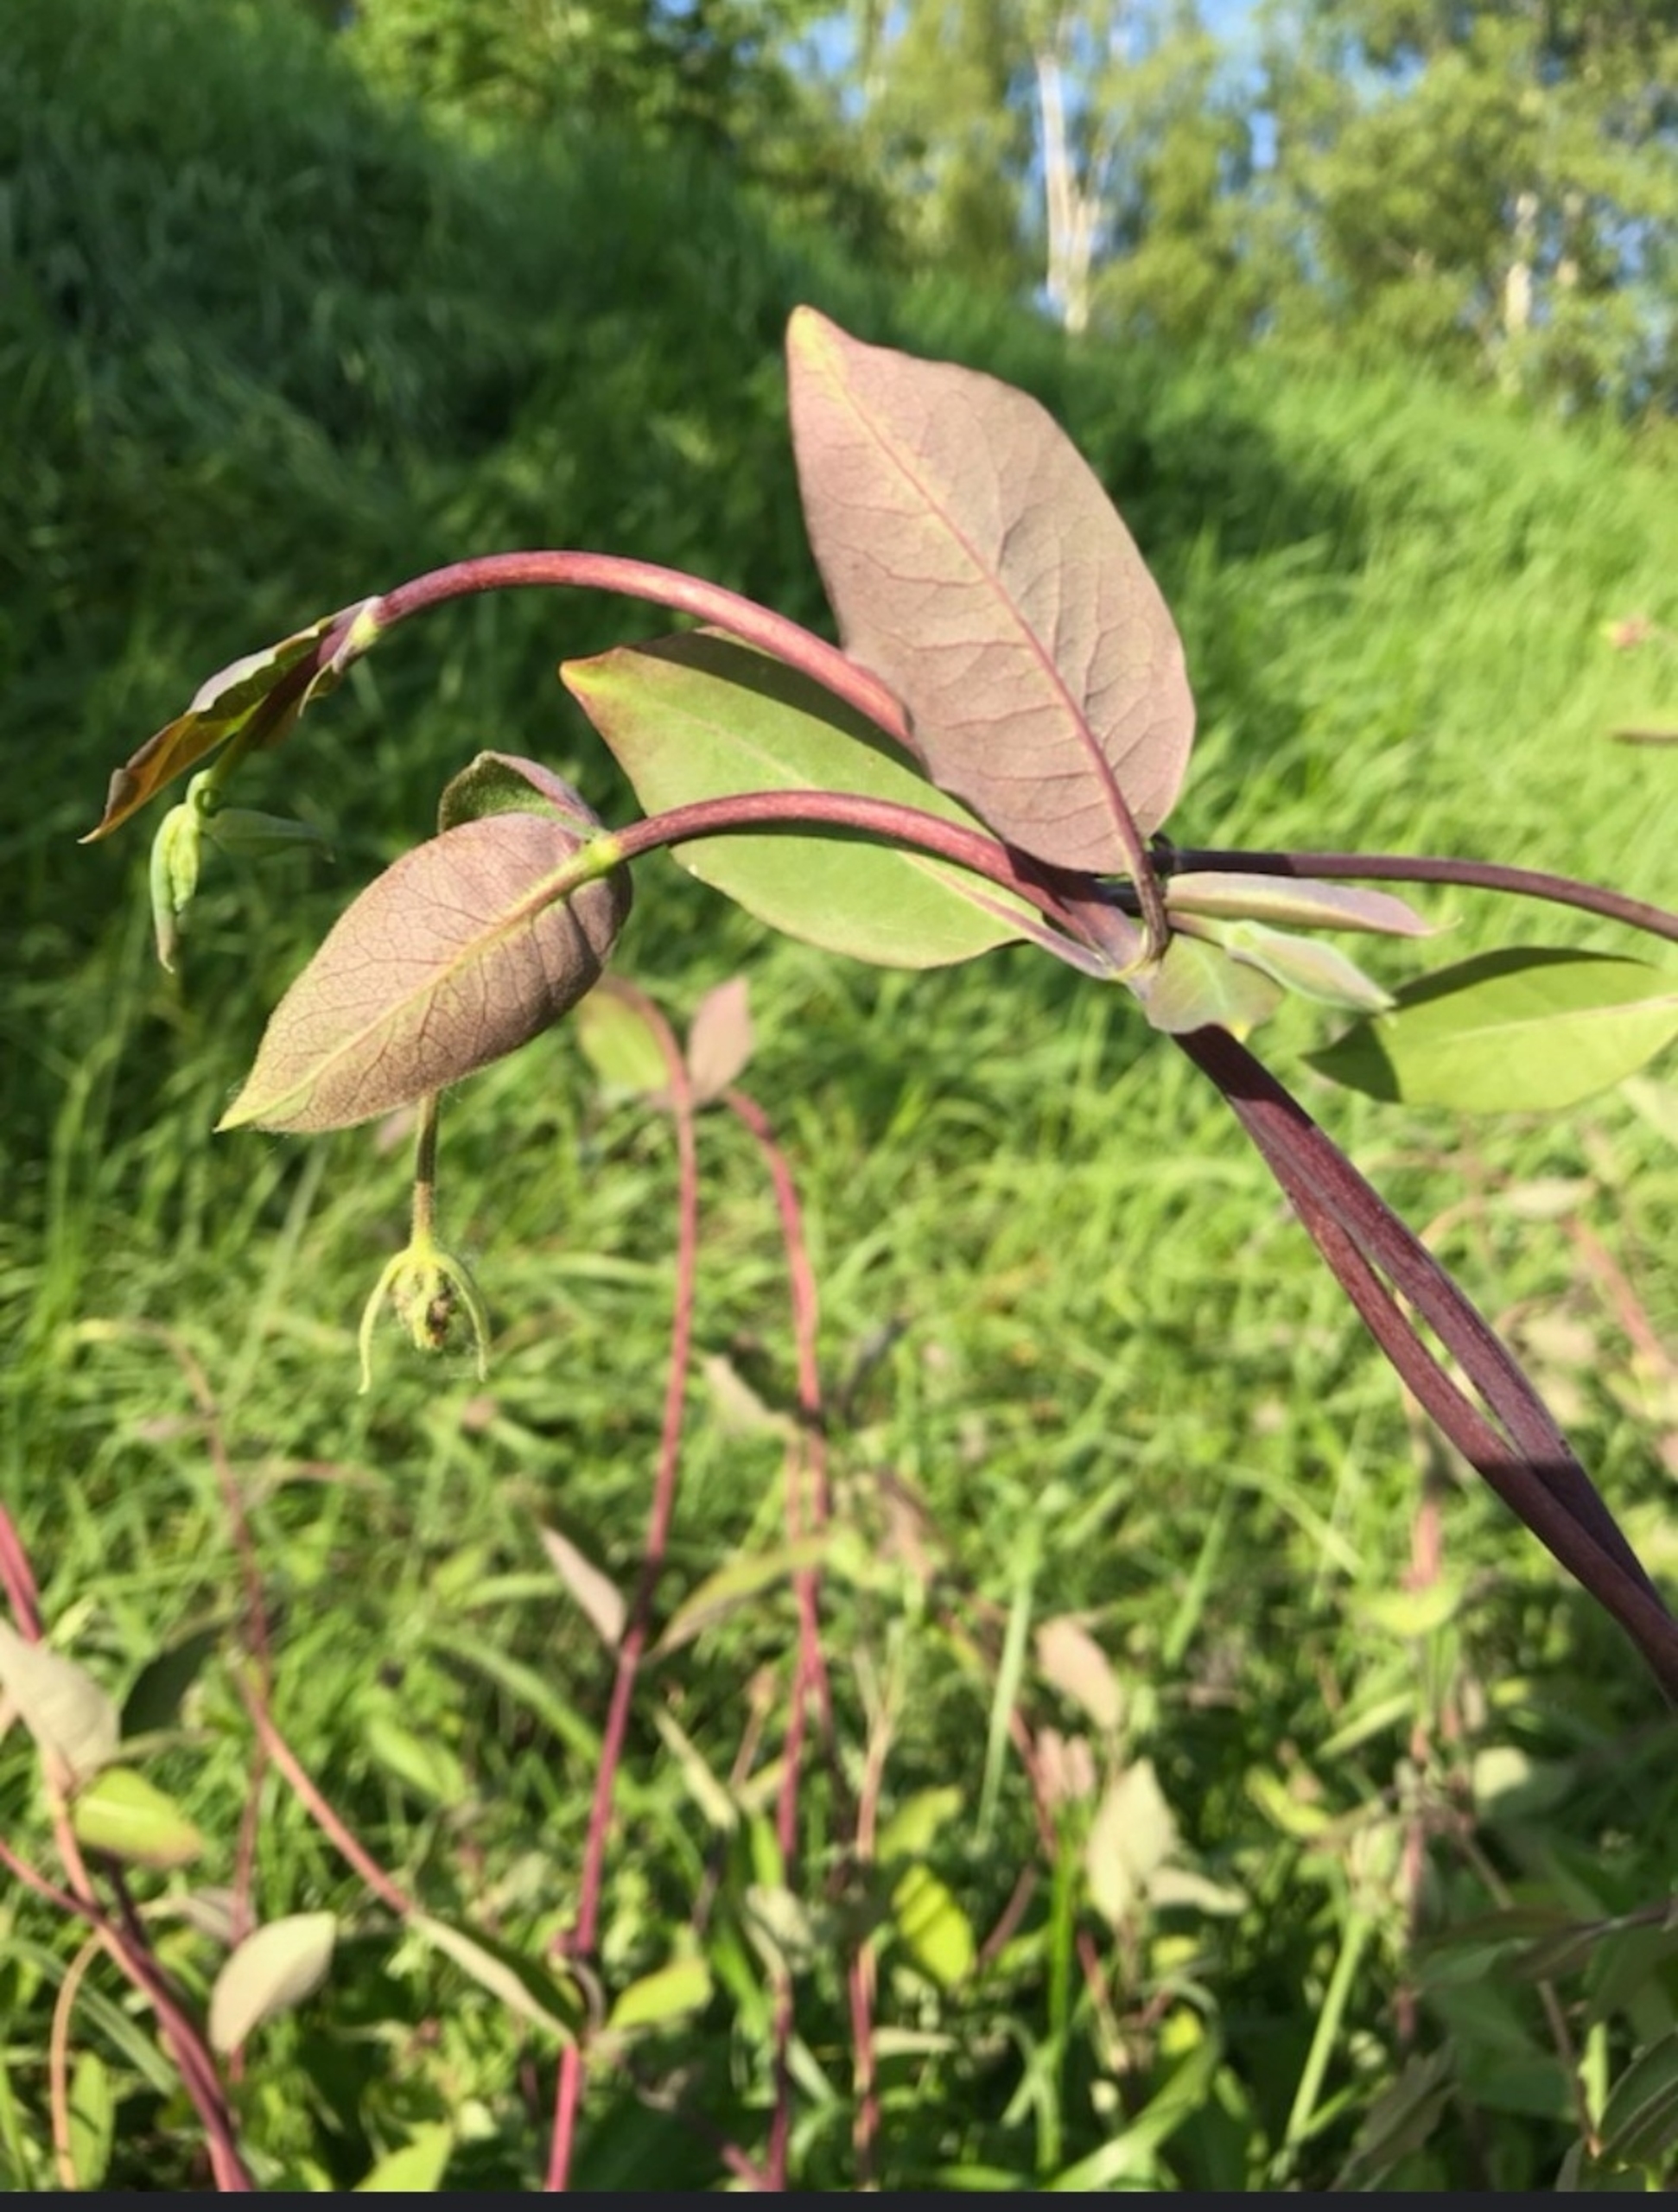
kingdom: Plantae
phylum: Tracheophyta
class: Magnoliopsida
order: Dipsacales
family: Caprifoliaceae
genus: Lonicera
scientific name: Lonicera periclymenum
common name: Almindelig gedeblad
